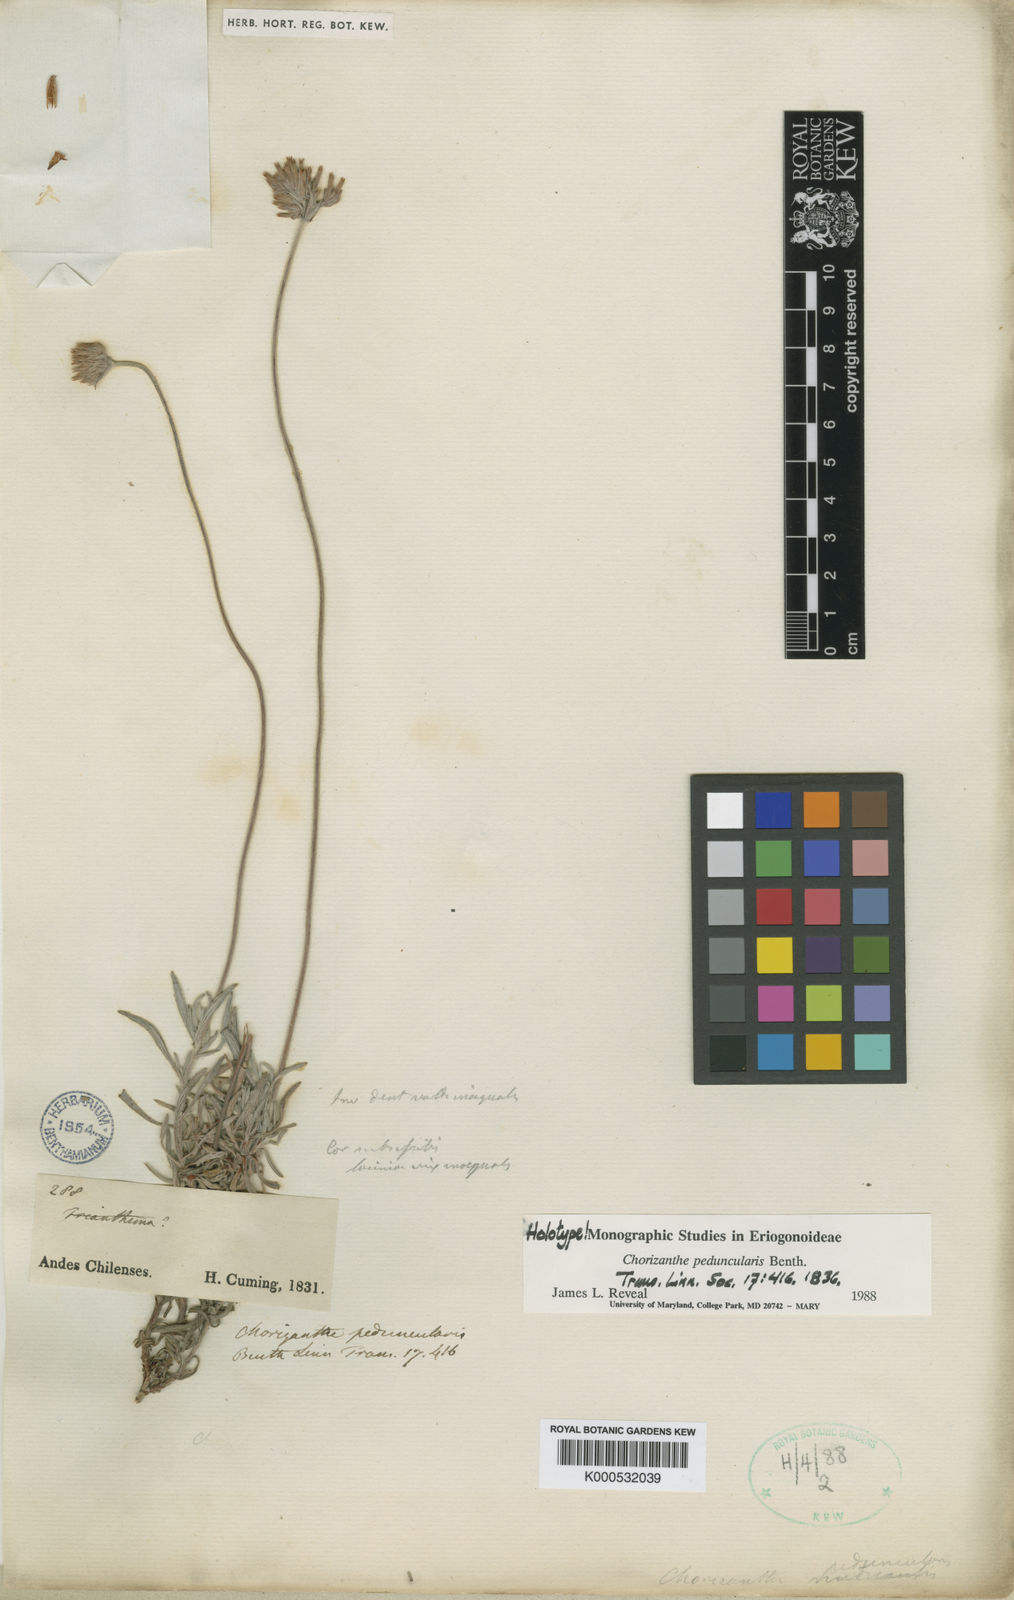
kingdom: Plantae
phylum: Tracheophyta
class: Magnoliopsida
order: Caryophyllales
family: Polygonaceae
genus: Chorizanthe
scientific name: Chorizanthe peduncularis
